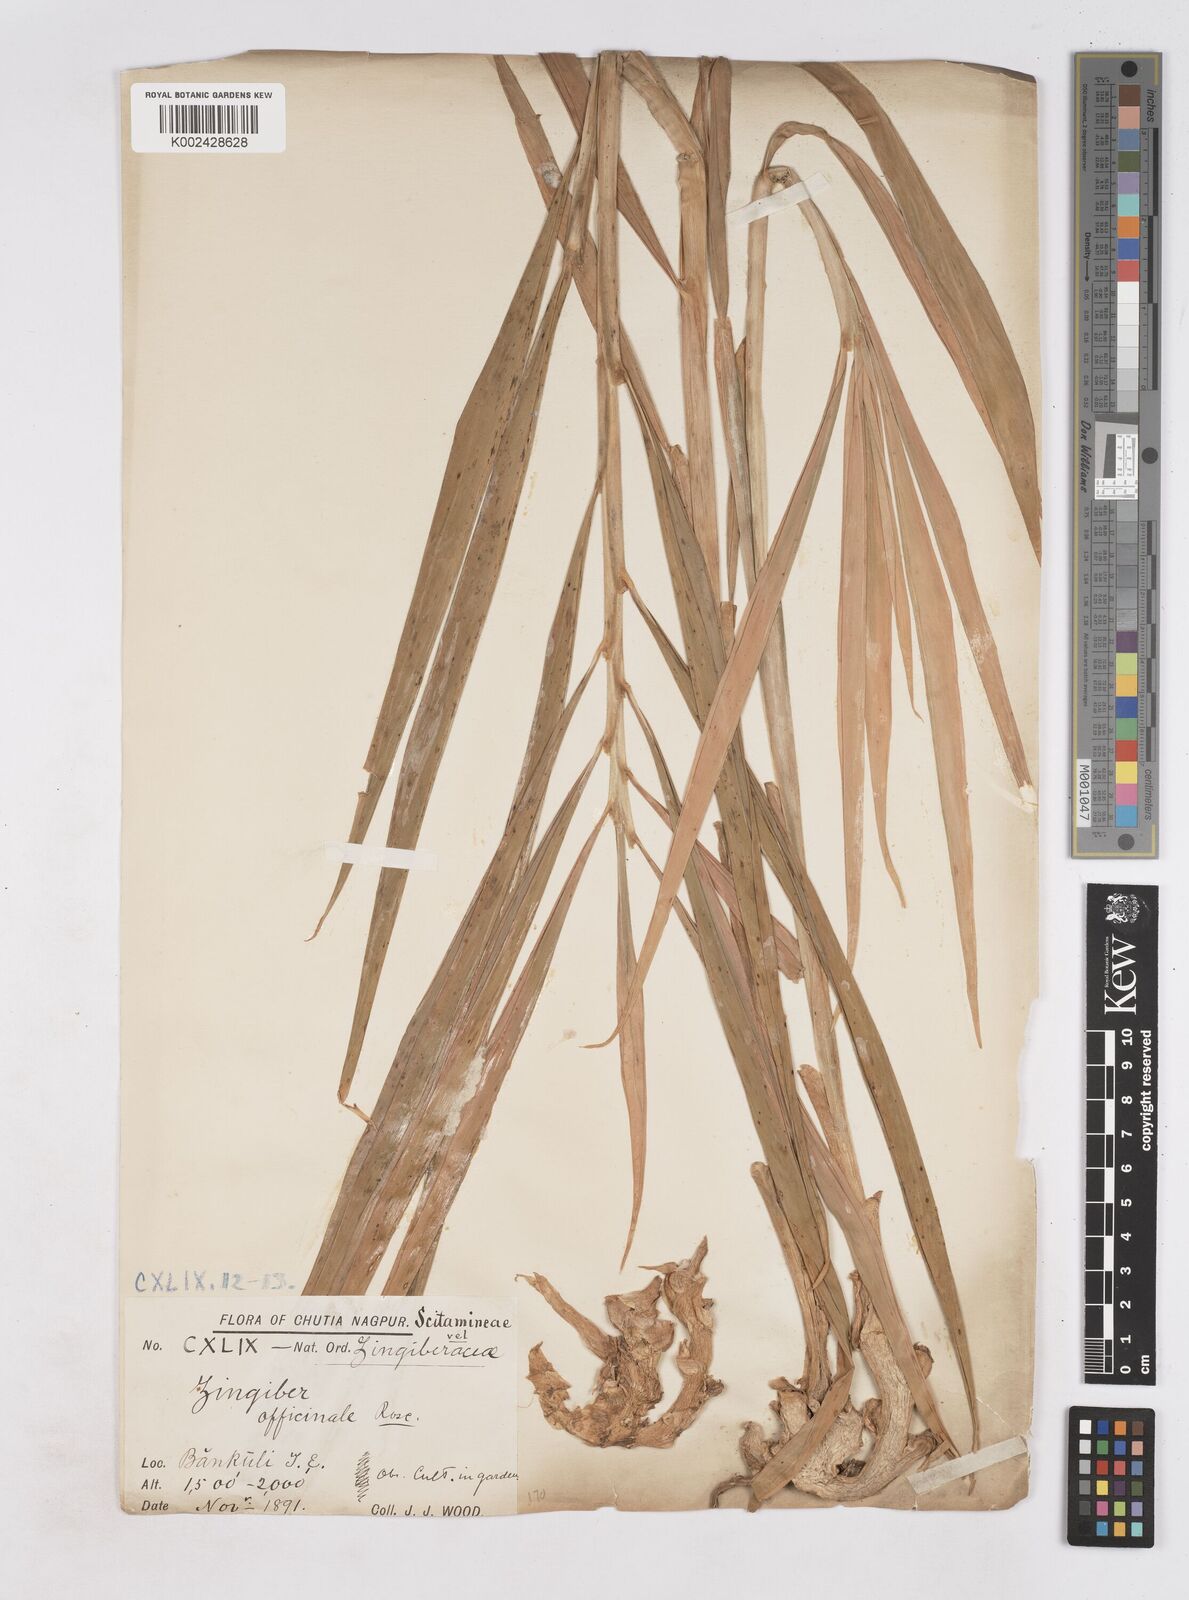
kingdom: Plantae
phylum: Tracheophyta
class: Liliopsida
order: Zingiberales
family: Zingiberaceae
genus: Zingiber
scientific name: Zingiber officinale
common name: Ginger
